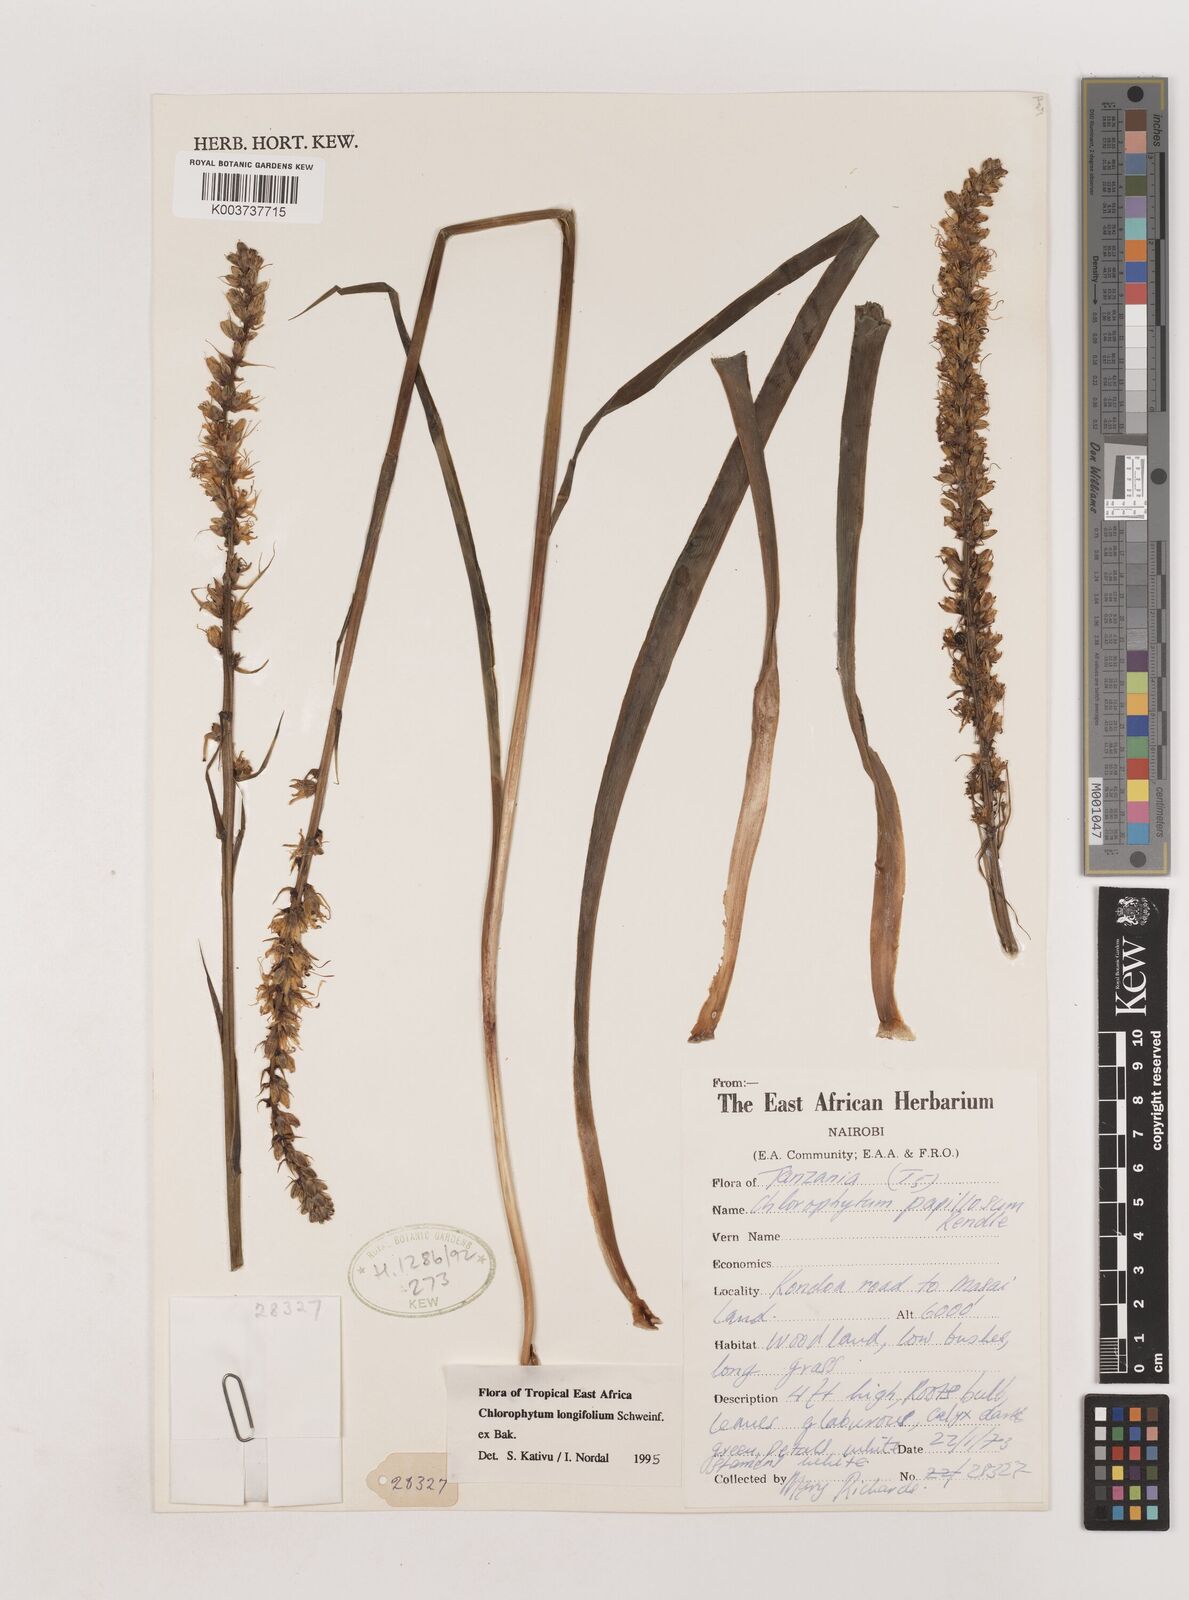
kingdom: Plantae
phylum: Tracheophyta
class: Liliopsida
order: Asparagales
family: Asparagaceae
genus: Chlorophytum
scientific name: Chlorophytum longifolium
